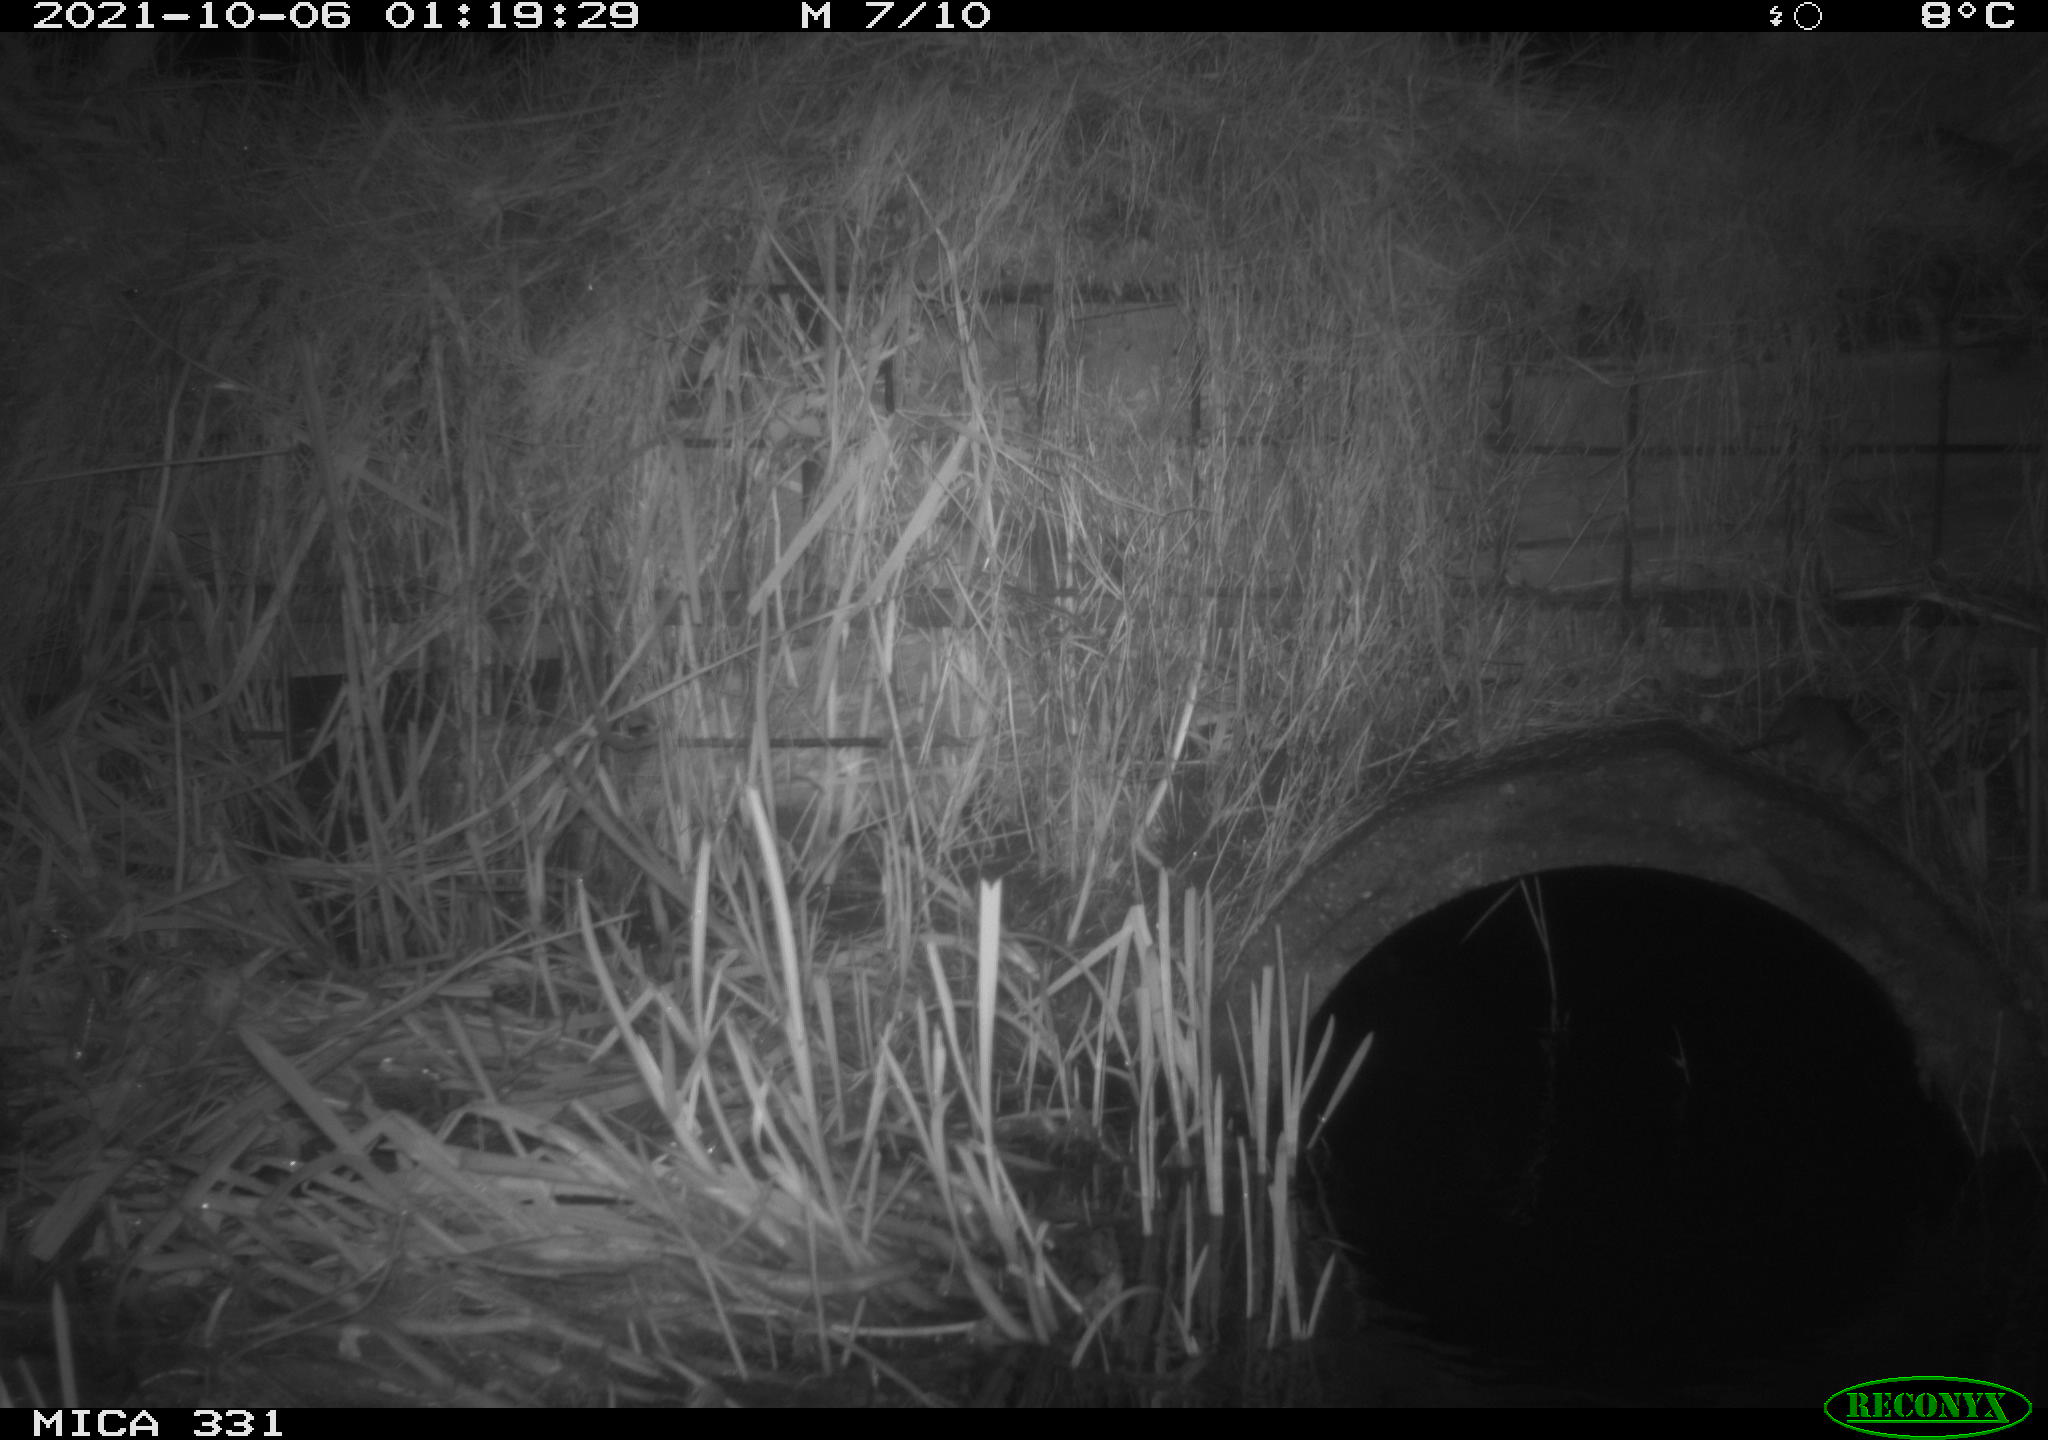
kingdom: Animalia
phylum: Chordata
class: Mammalia
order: Rodentia
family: Muridae
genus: Rattus
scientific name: Rattus norvegicus
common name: Brown rat
